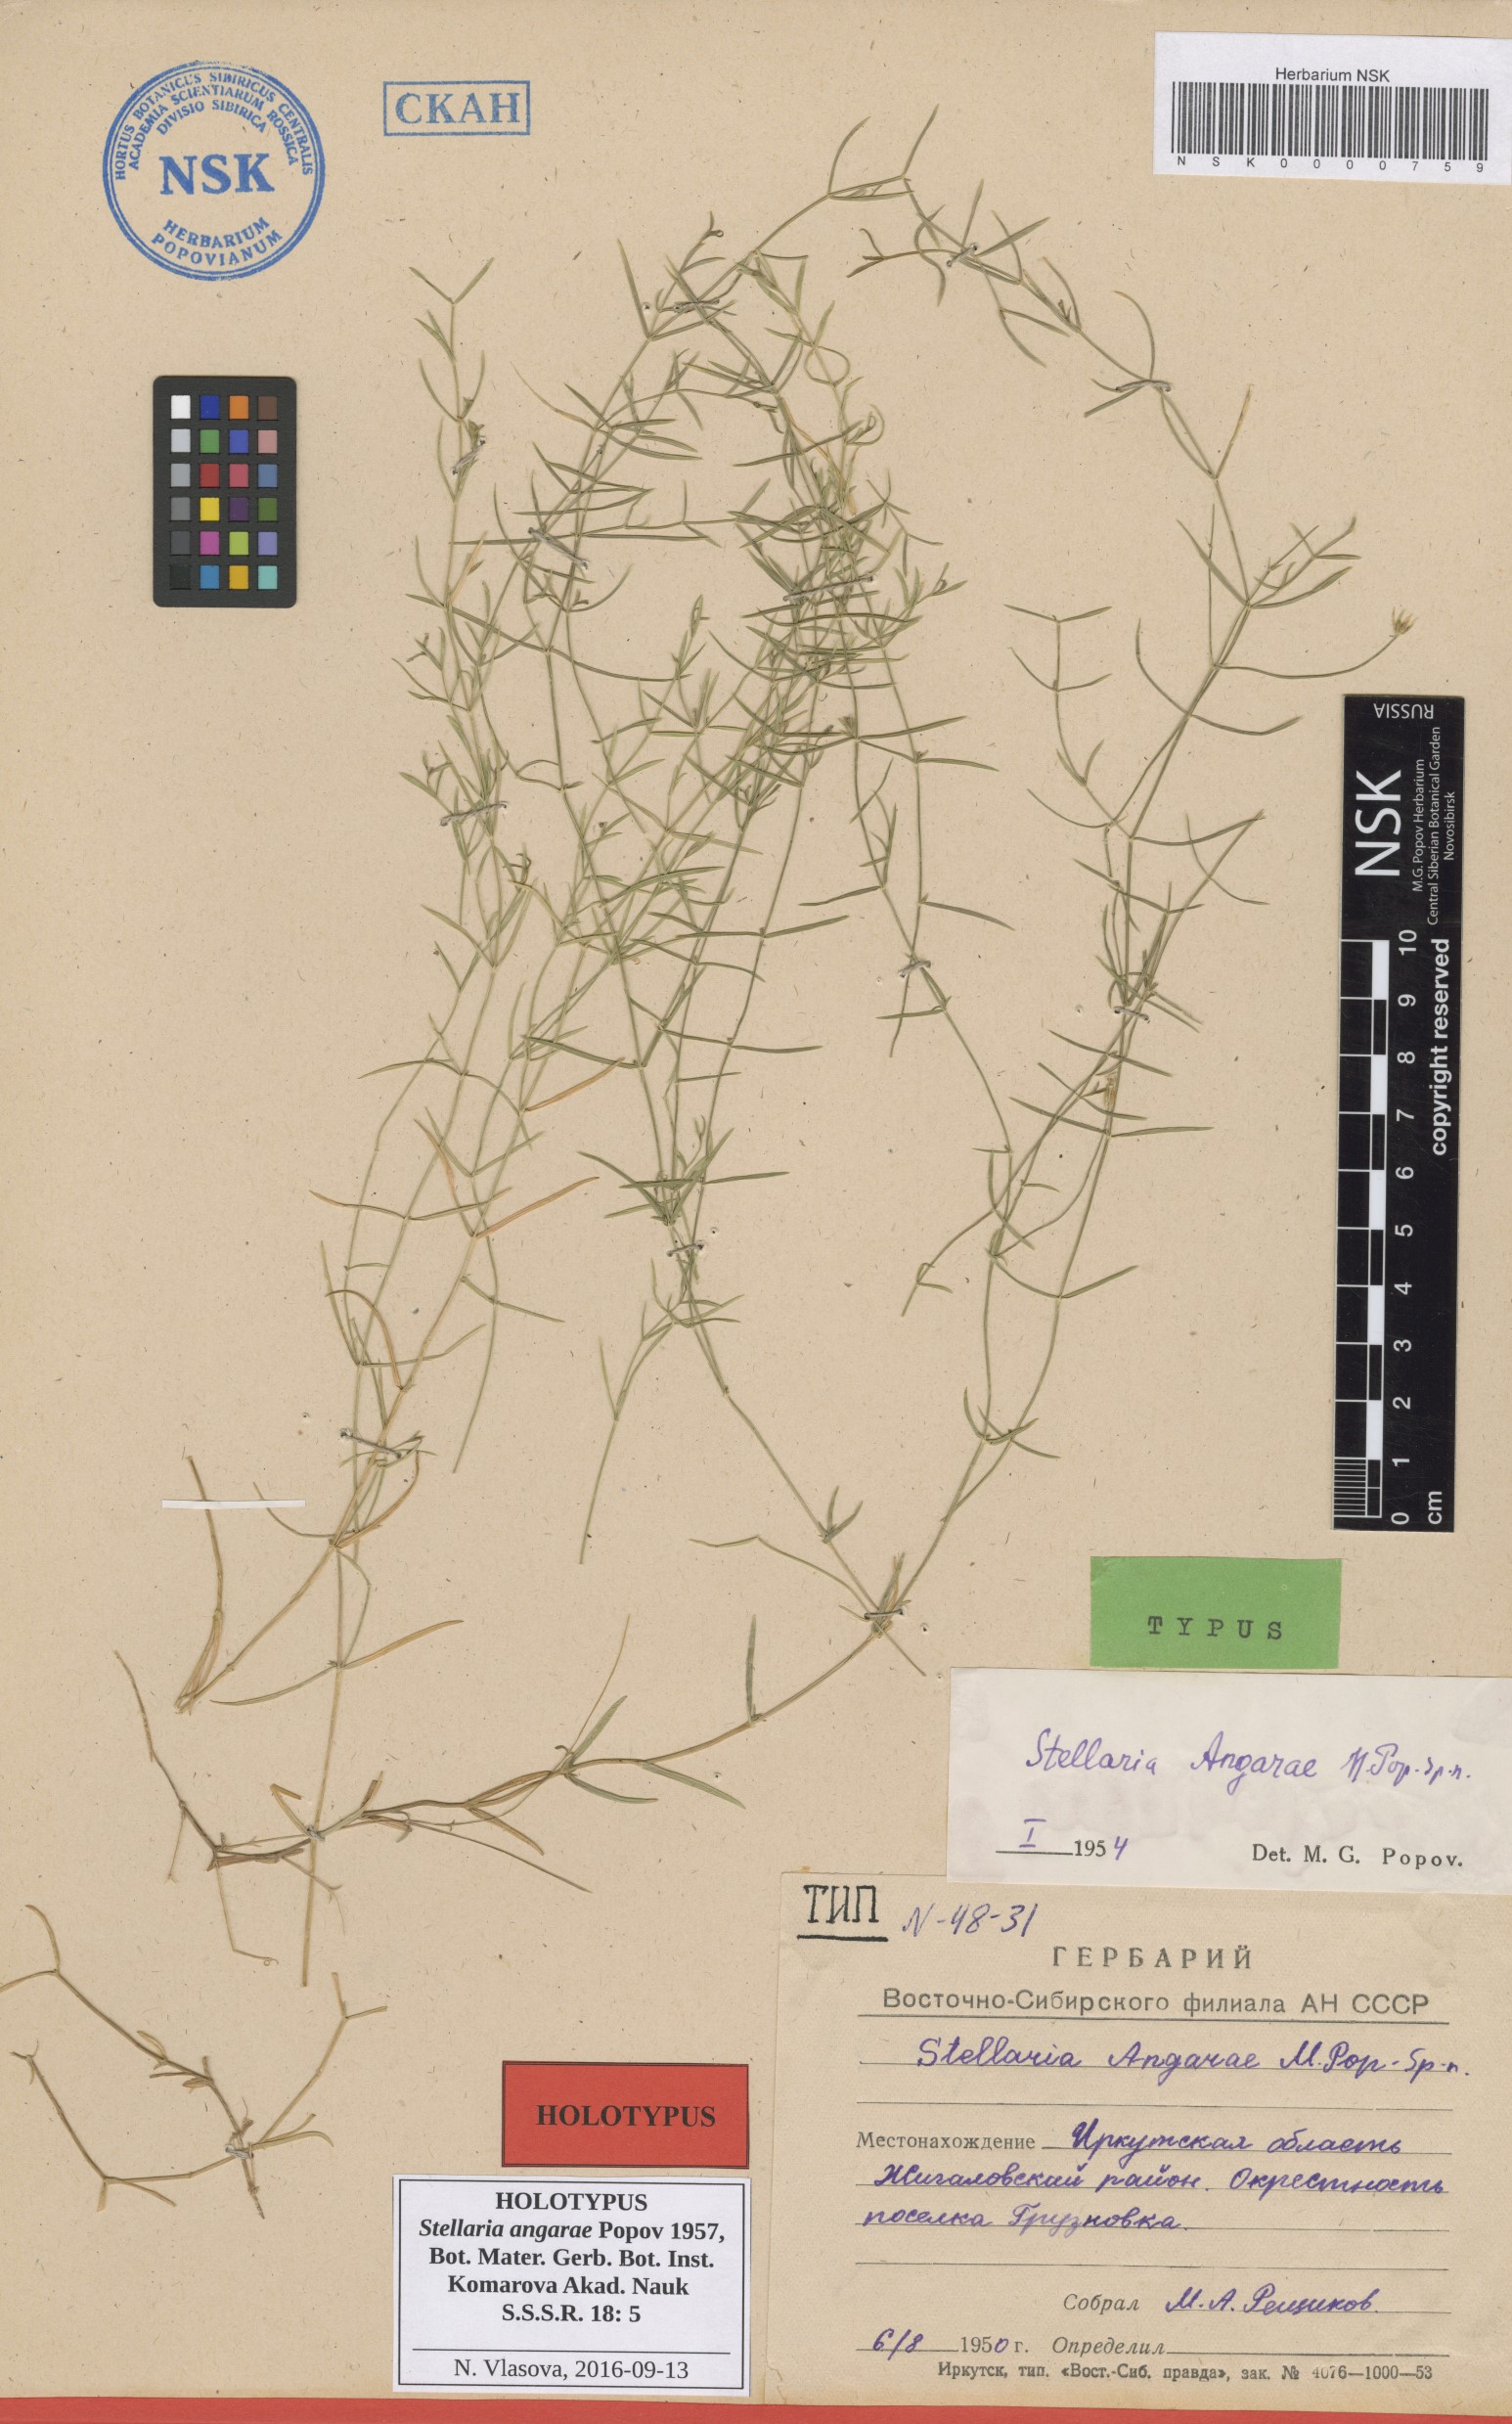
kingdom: Plantae
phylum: Tracheophyta
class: Magnoliopsida
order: Caryophyllales
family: Caryophyllaceae
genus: Stellaria
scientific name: Stellaria angarae
